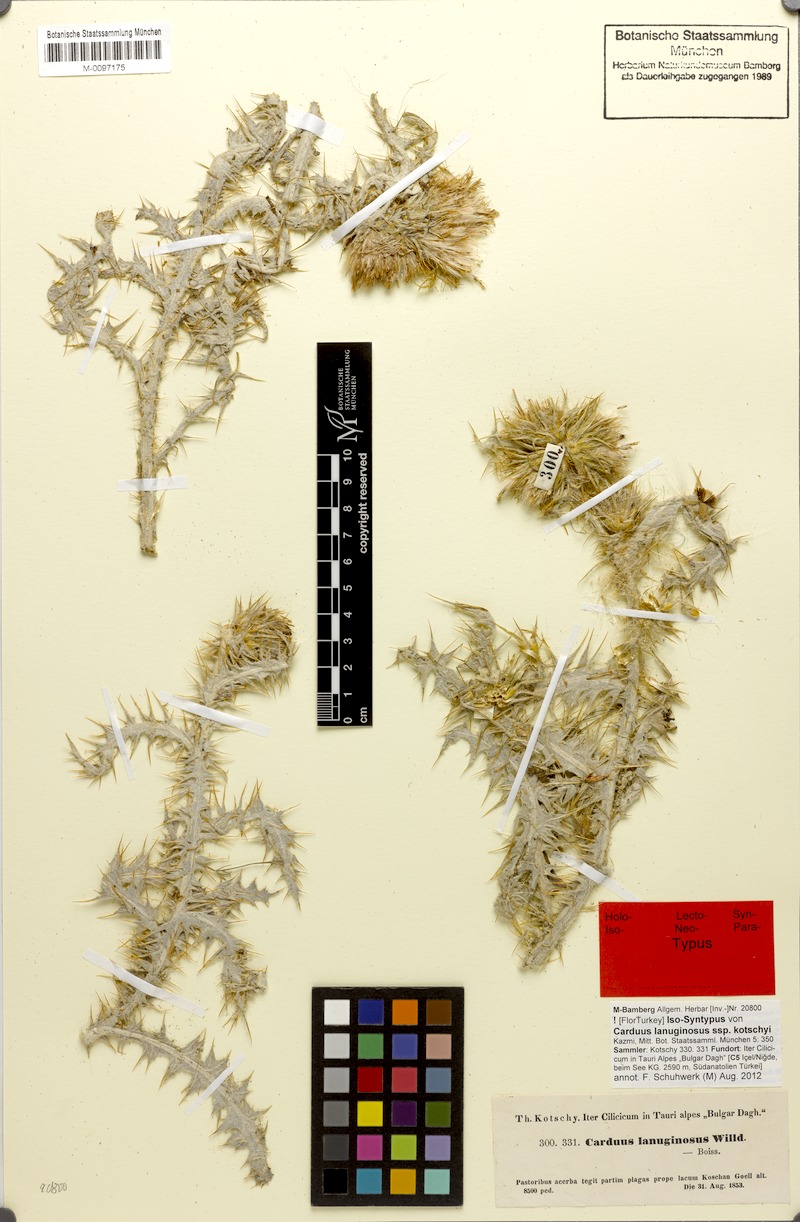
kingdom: Plantae
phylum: Tracheophyta
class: Magnoliopsida
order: Asterales
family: Asteraceae
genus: Carduus
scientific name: Carduus lanuginosus
